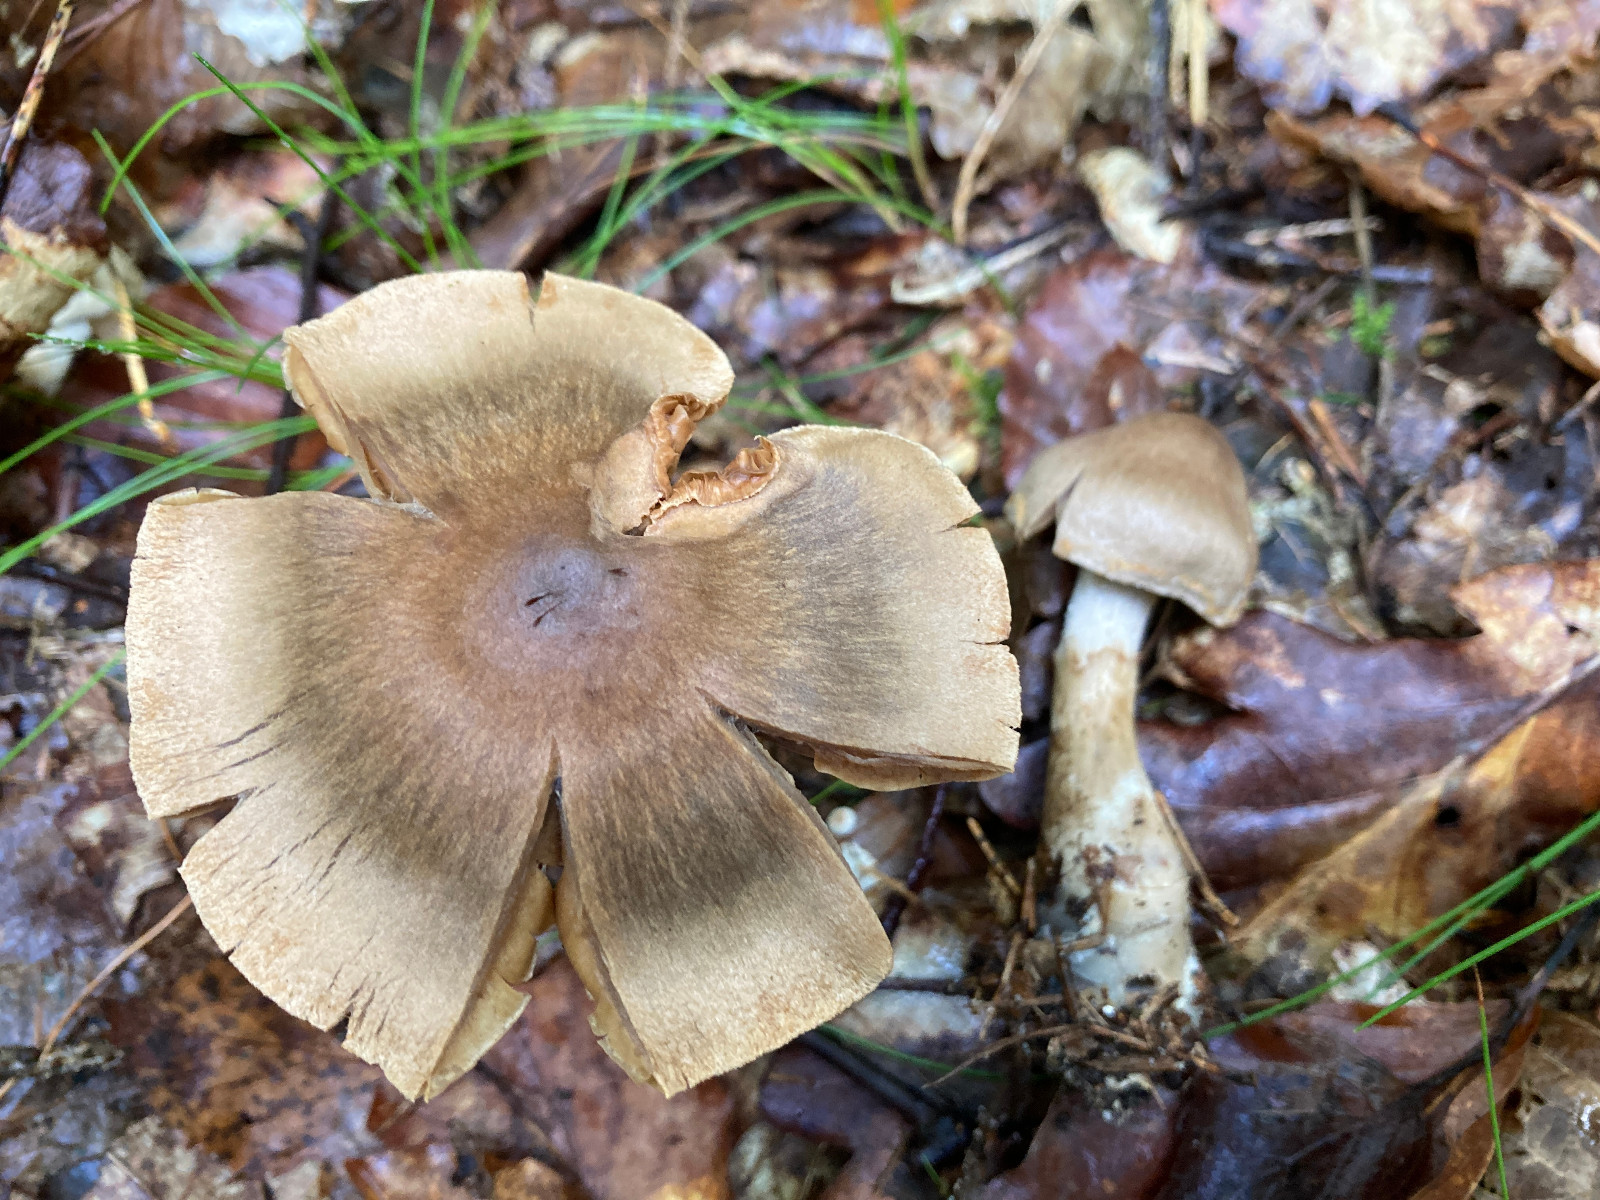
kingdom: Fungi
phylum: Basidiomycota
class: Agaricomycetes
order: Agaricales
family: Cortinariaceae
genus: Cortinarius
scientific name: Cortinarius raphanoides
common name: ræddike-slørhat
